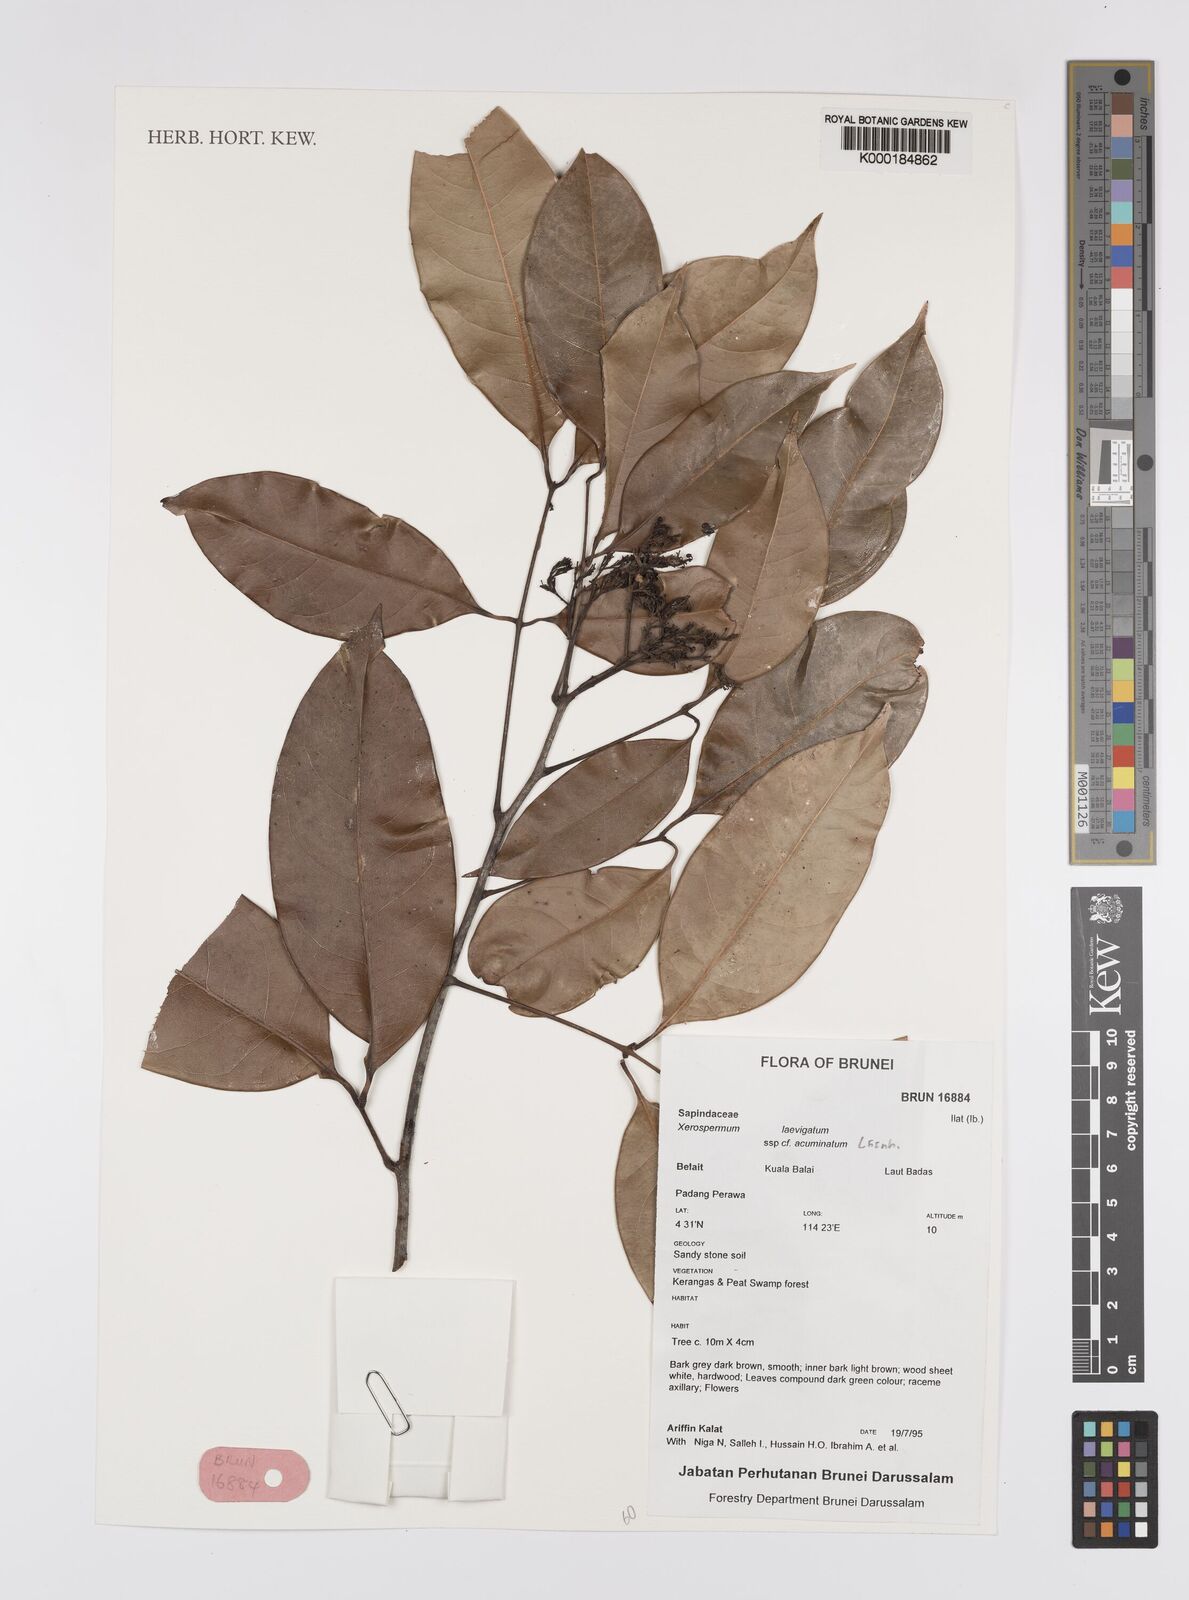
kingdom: Plantae
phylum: Tracheophyta
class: Magnoliopsida
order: Sapindales
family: Sapindaceae
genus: Xerospermum
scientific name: Xerospermum laevigatum
